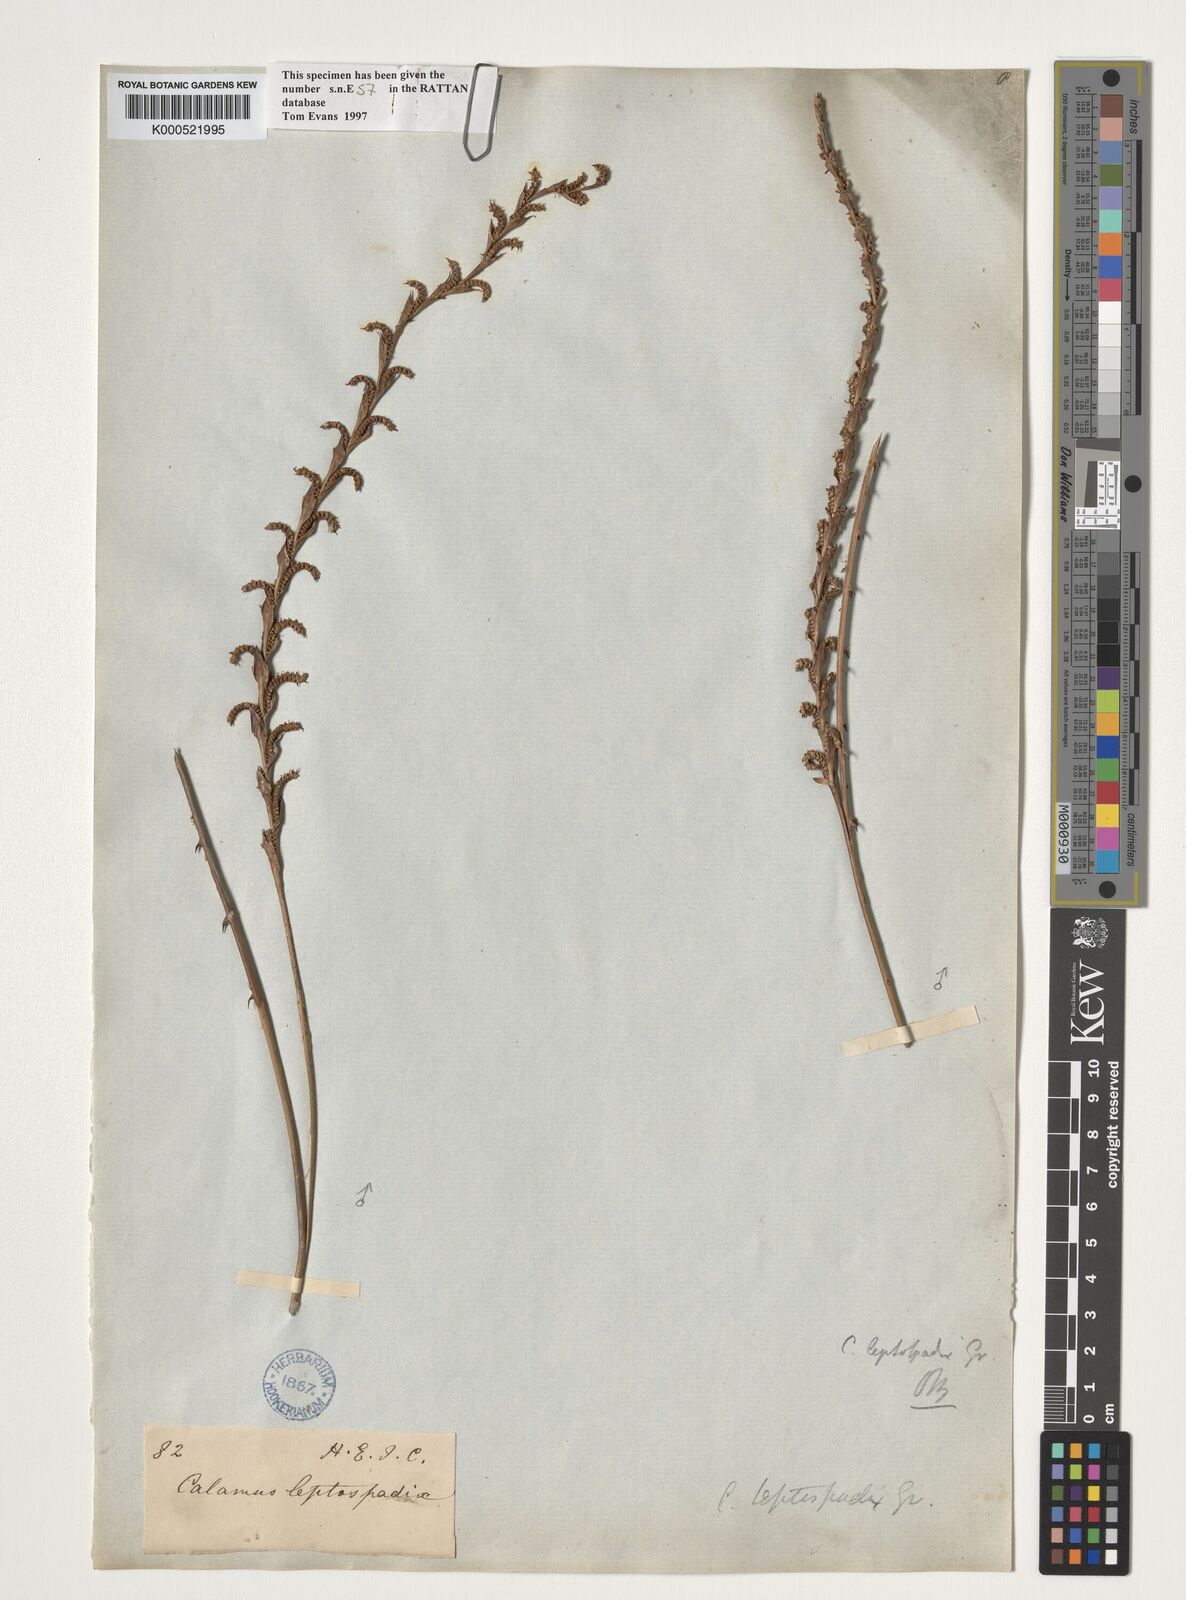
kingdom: Plantae
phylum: Tracheophyta
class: Liliopsida
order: Arecales
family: Arecaceae
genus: Calamus
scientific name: Calamus leptospadix
